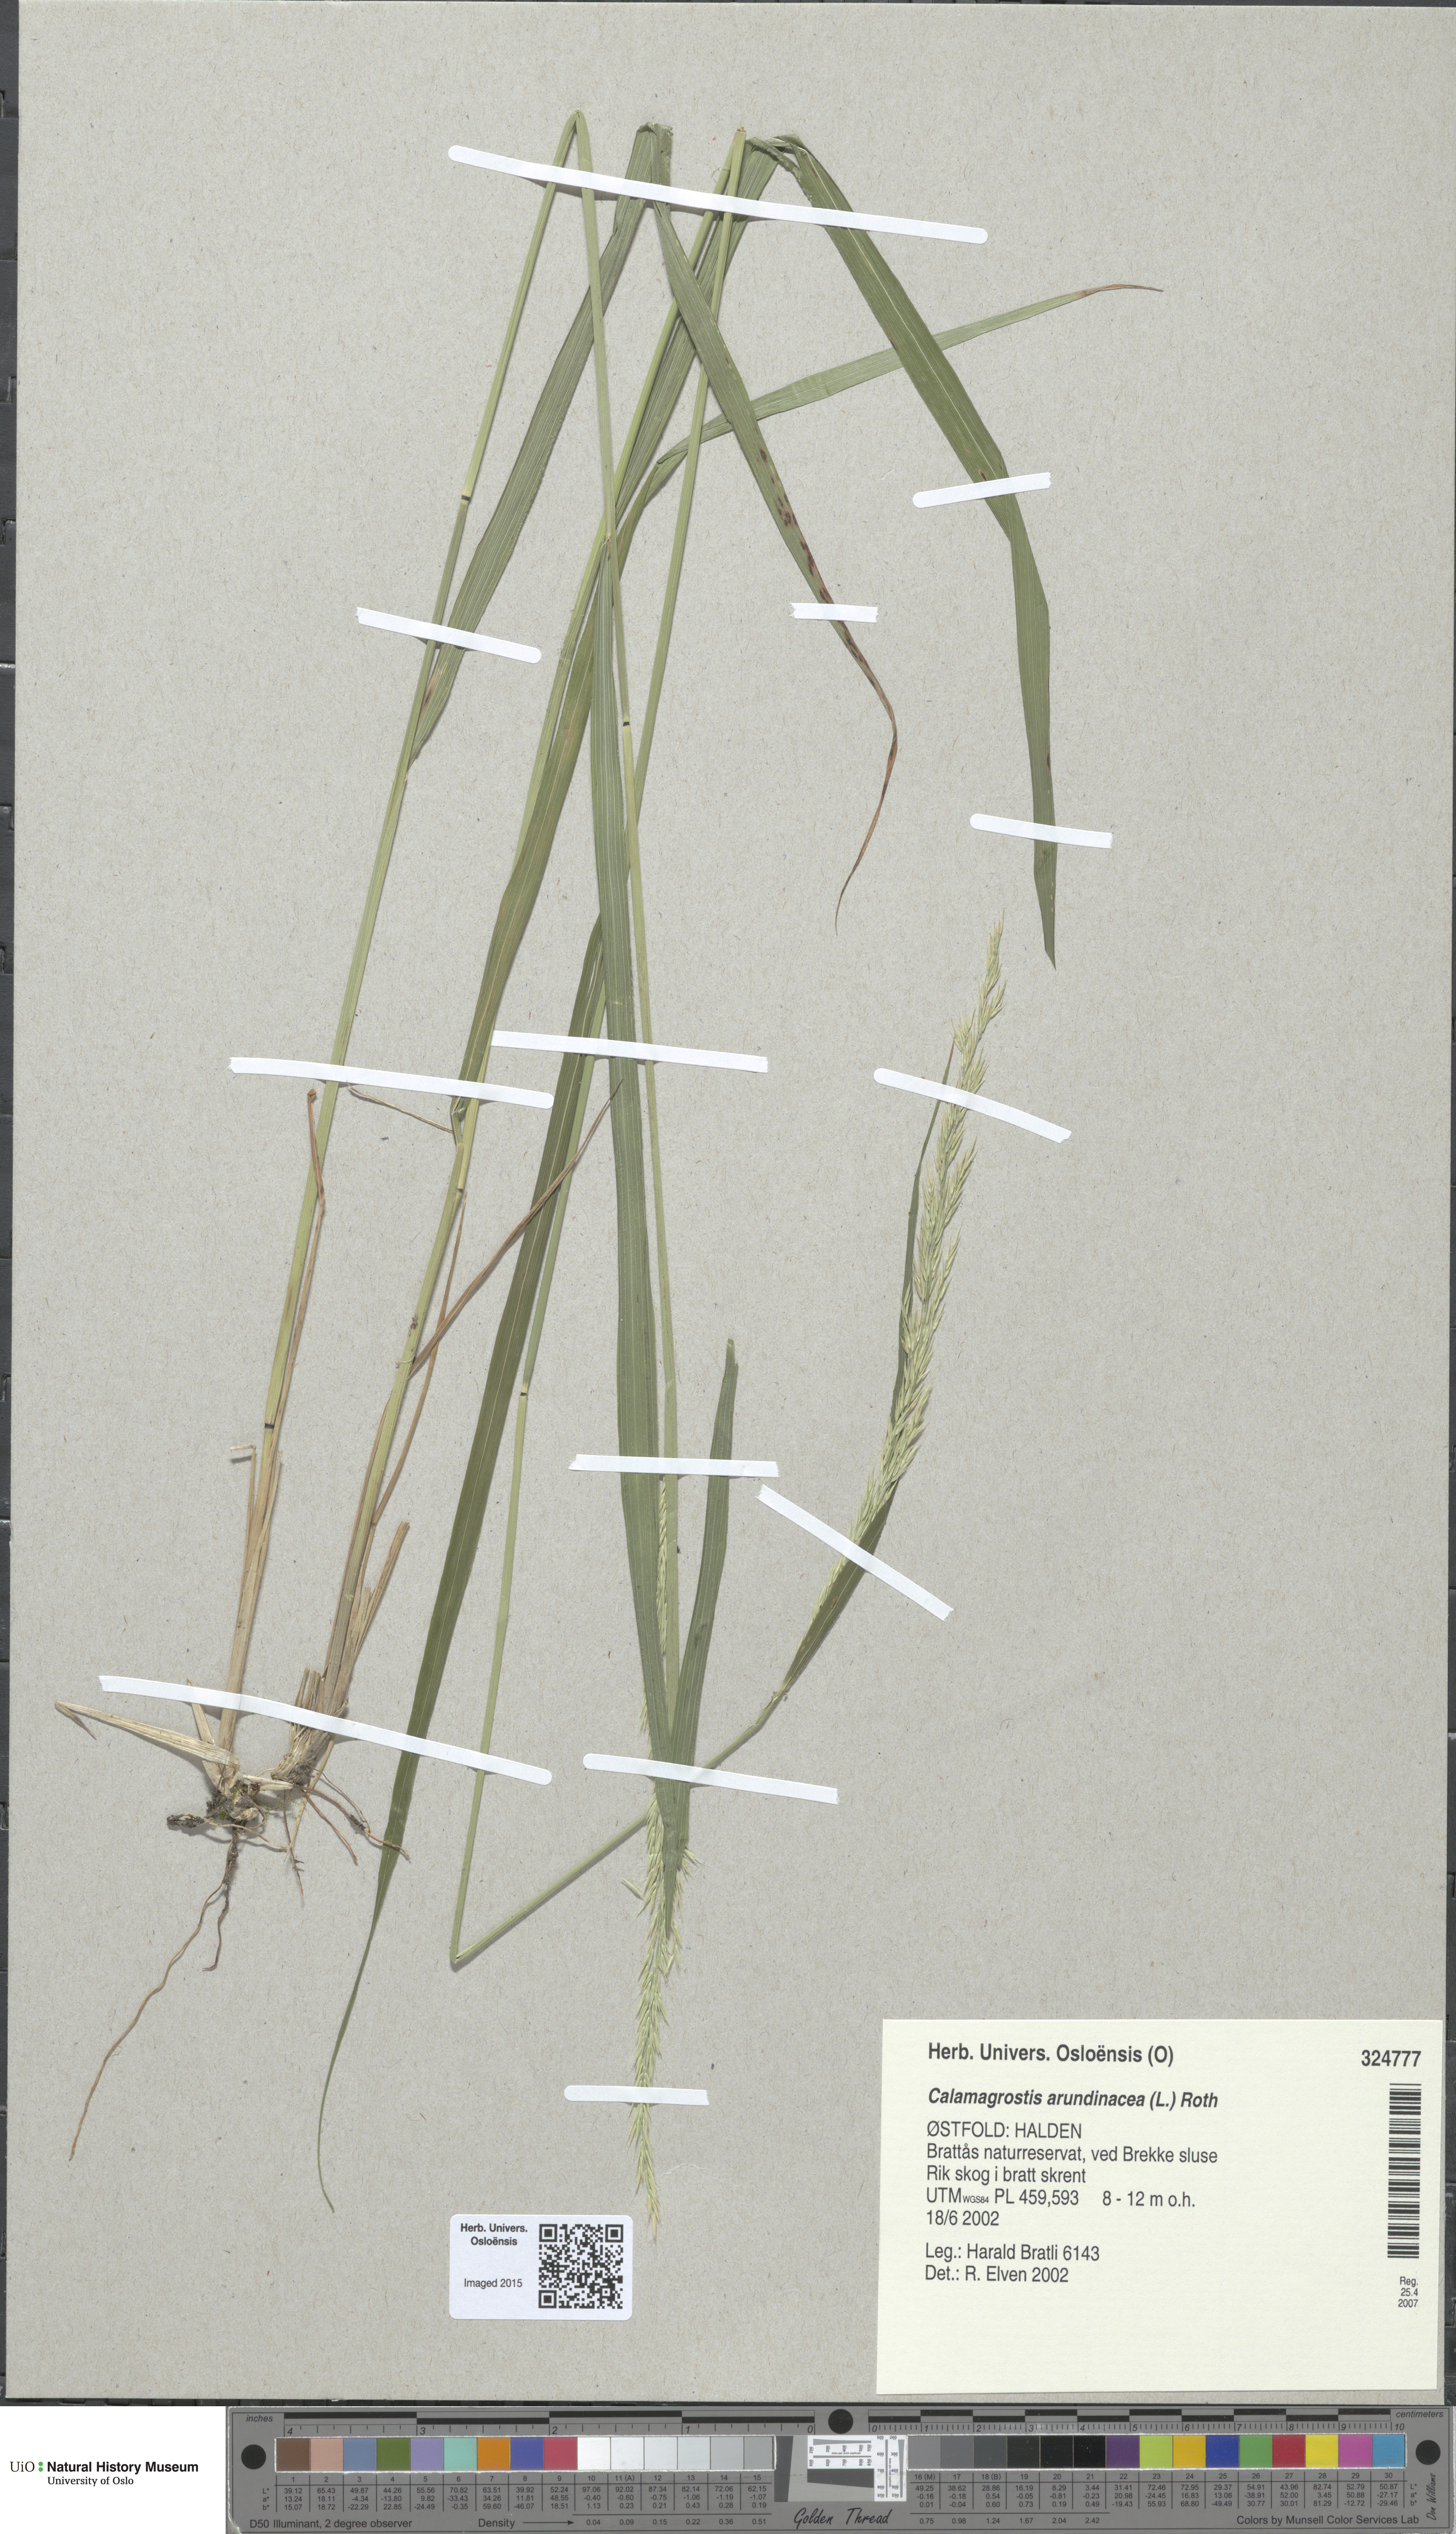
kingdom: Plantae
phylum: Tracheophyta
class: Liliopsida
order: Poales
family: Poaceae
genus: Calamagrostis
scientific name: Calamagrostis arundinacea
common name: Metskastik
